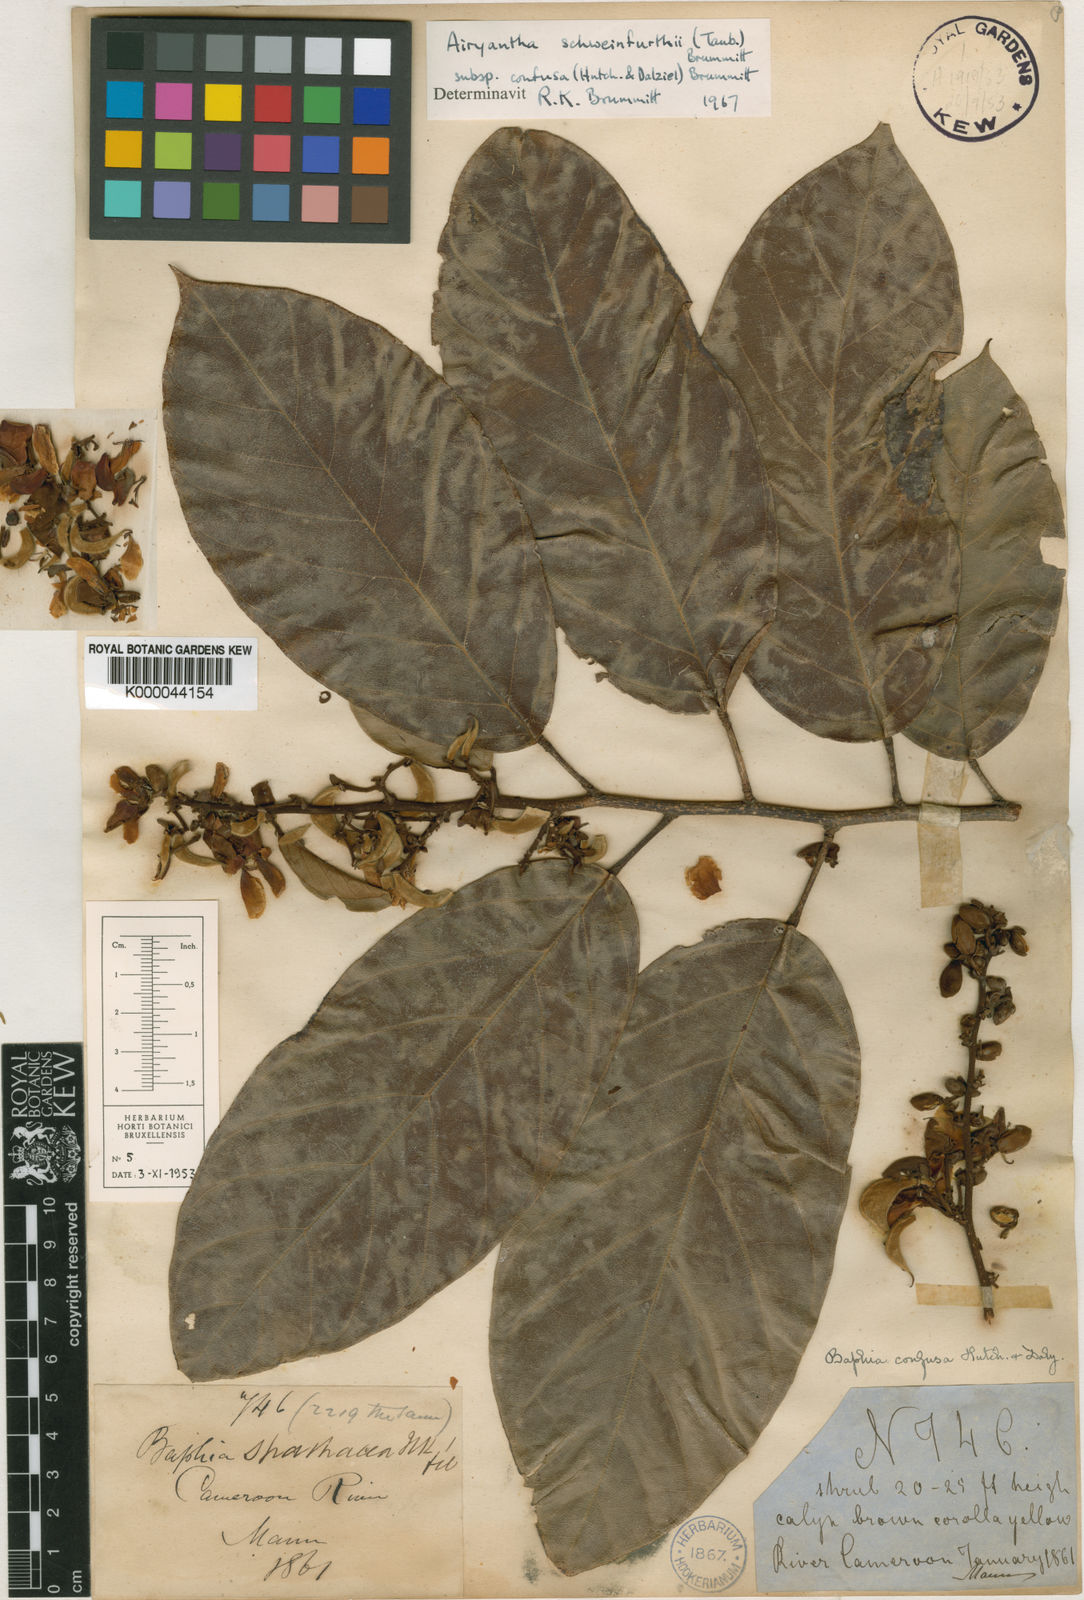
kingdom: Plantae
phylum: Tracheophyta
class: Magnoliopsida
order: Fabales
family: Fabaceae
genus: Airyantha
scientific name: Airyantha schweinfurthii
